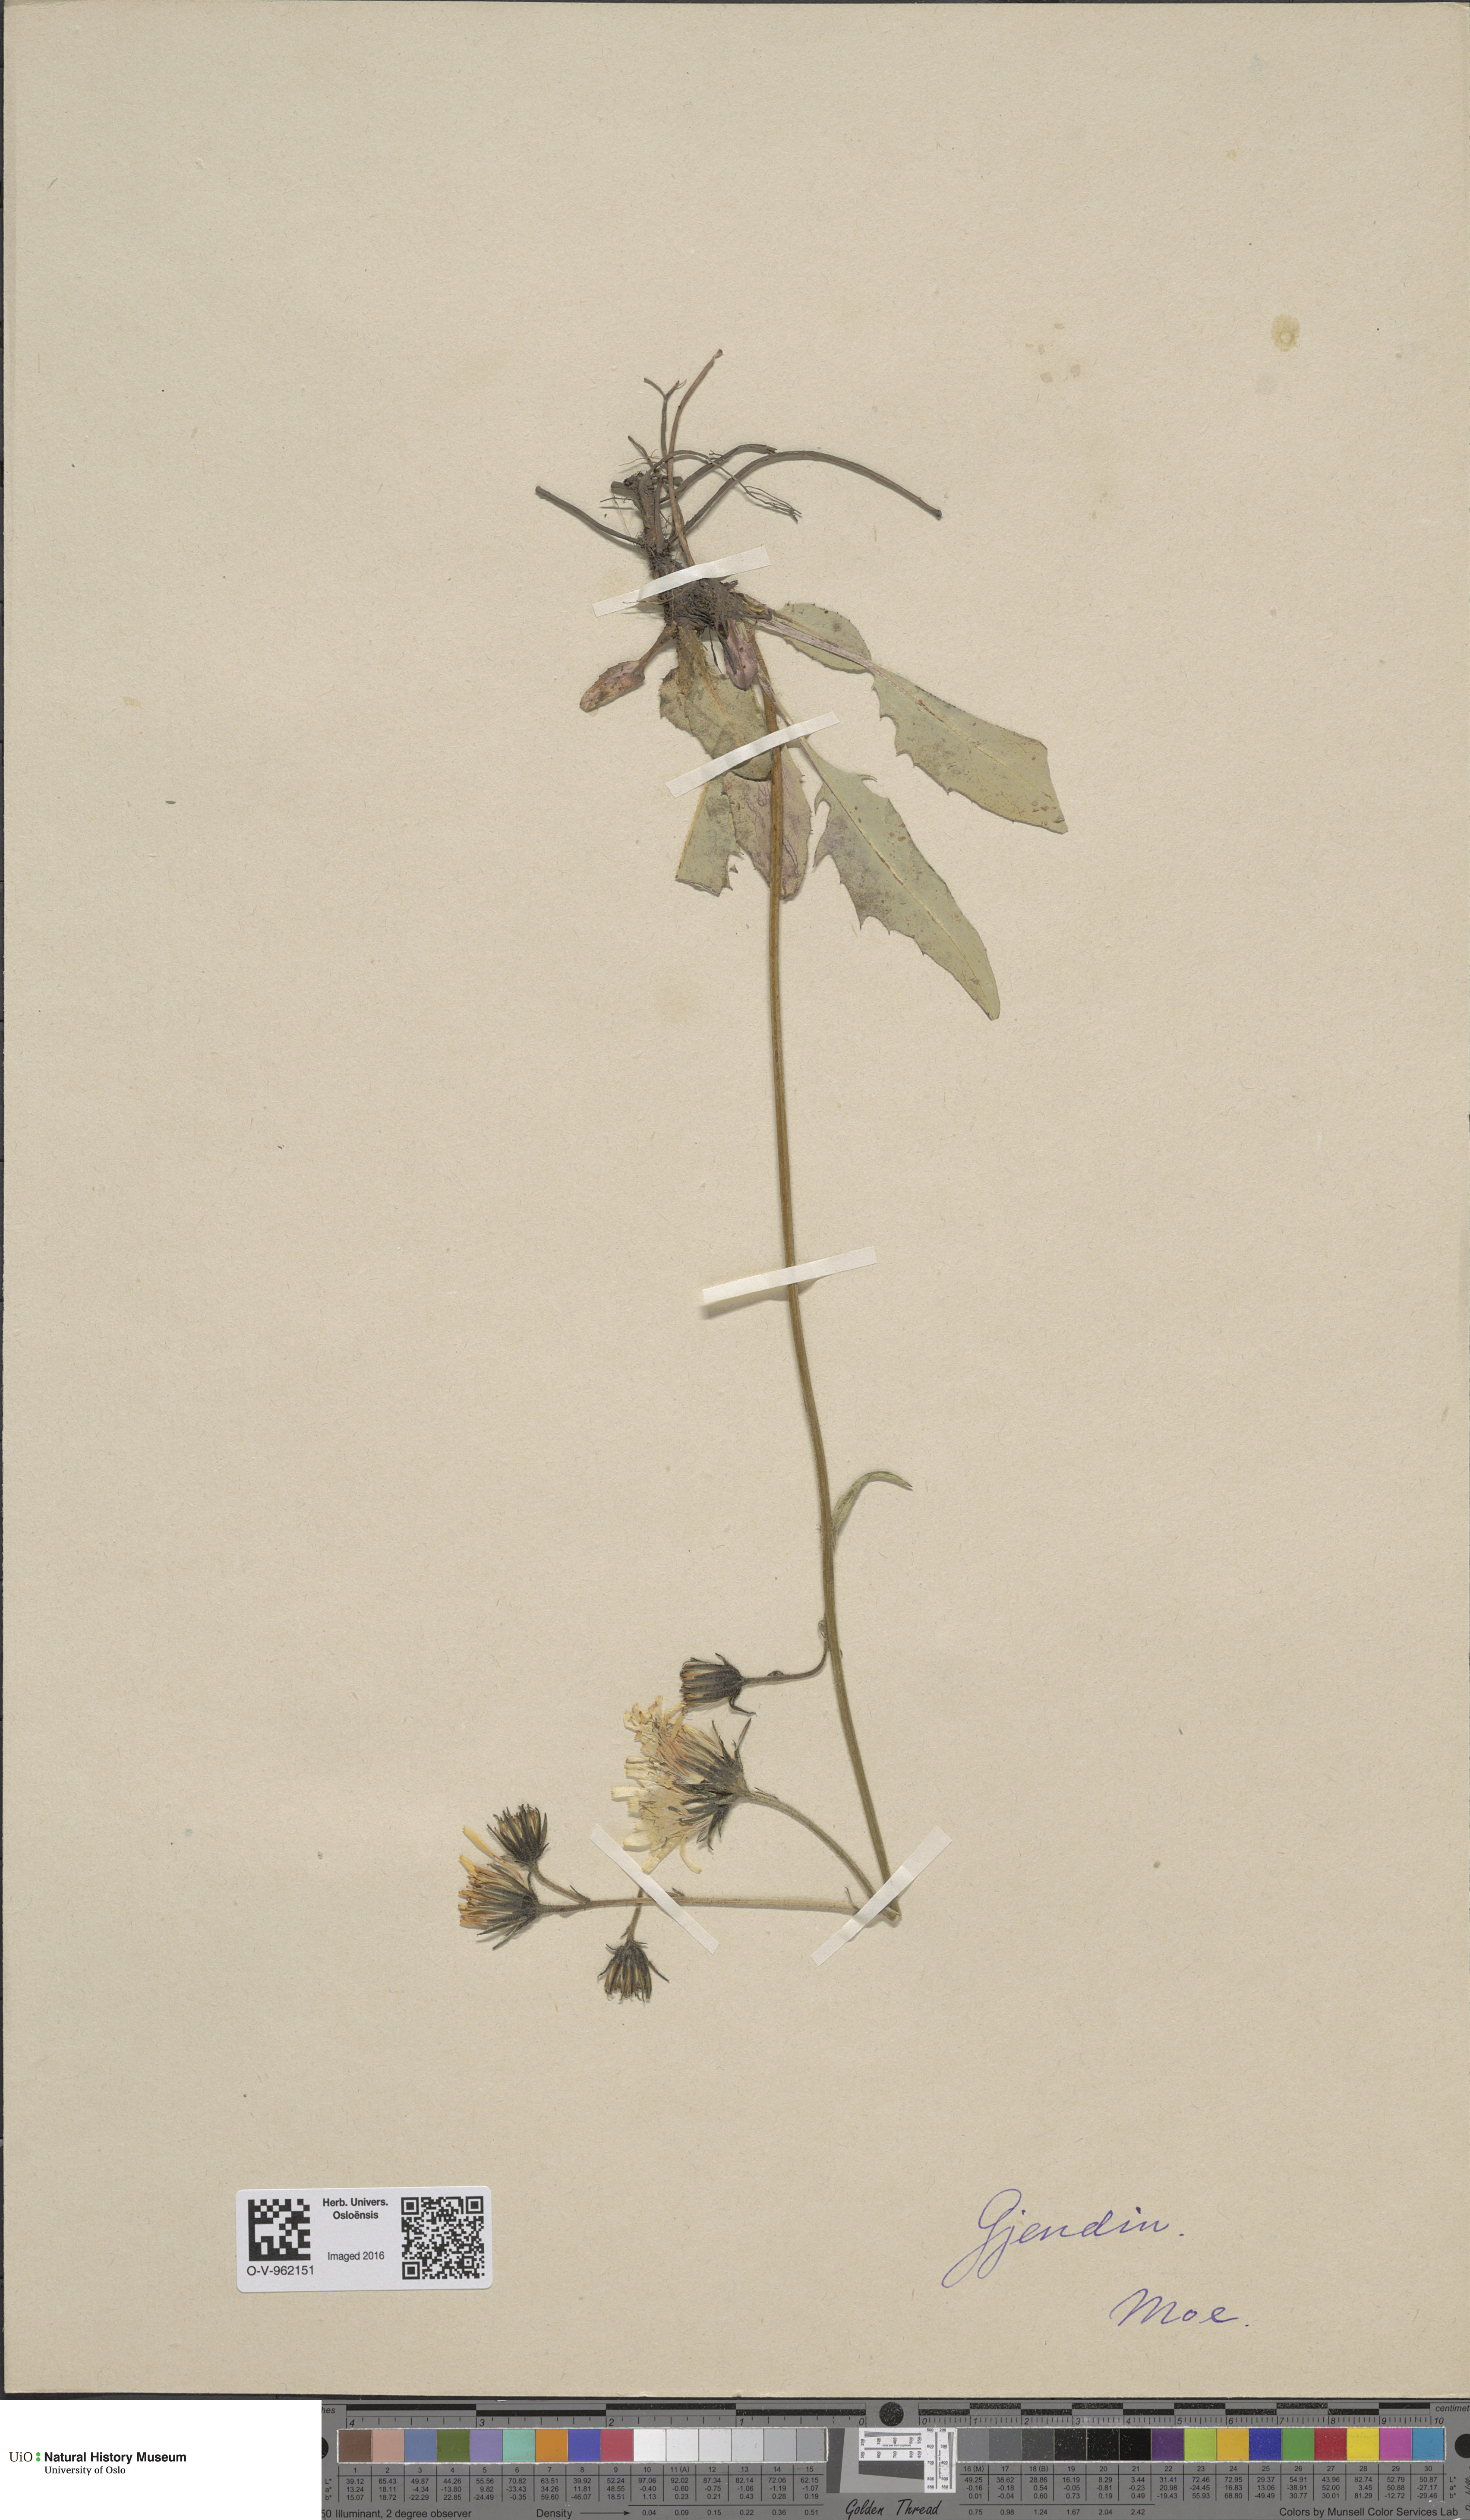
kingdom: Plantae
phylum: Tracheophyta
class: Magnoliopsida
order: Asterales
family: Asteraceae
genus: Hieracium
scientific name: Hieracium
